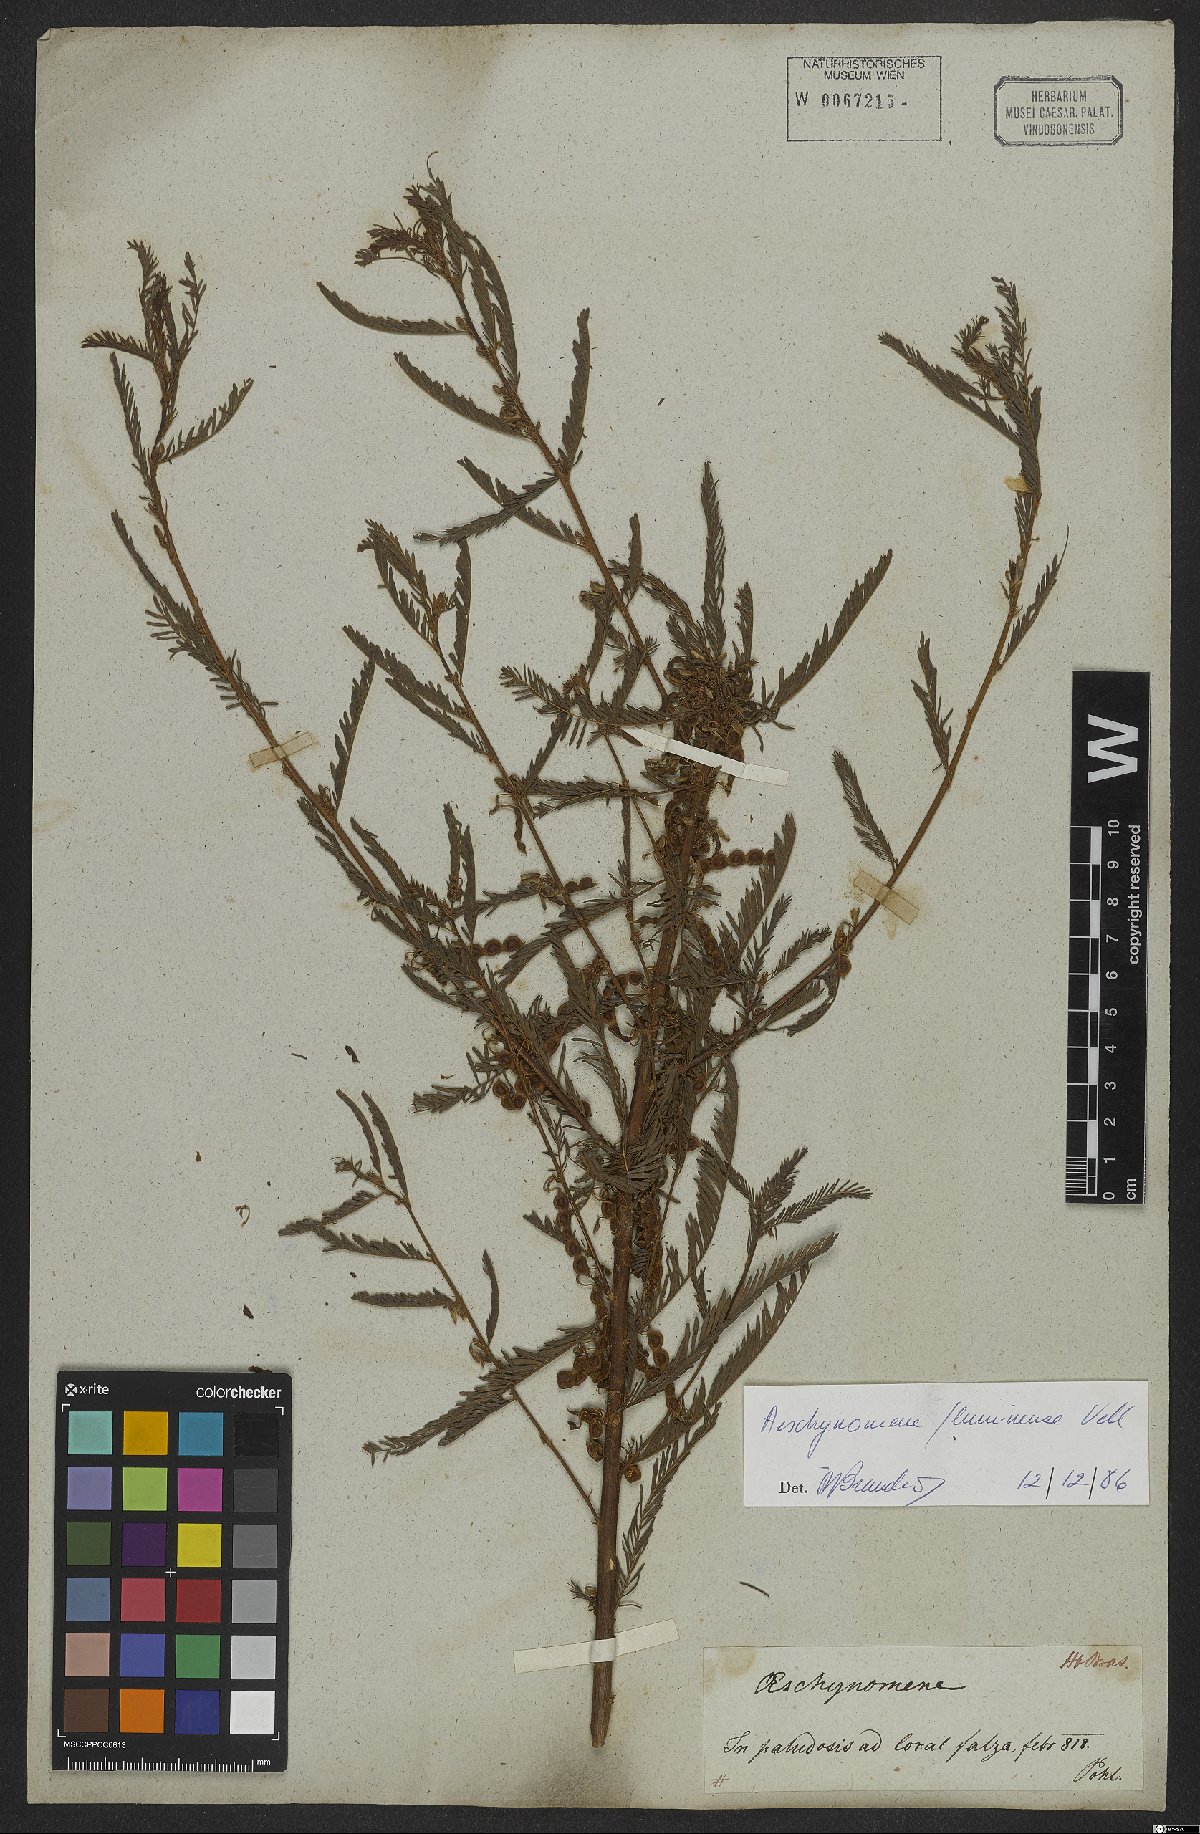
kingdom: Plantae
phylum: Tracheophyta
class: Magnoliopsida
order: Fabales
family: Fabaceae
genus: Aeschynomene
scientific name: Aeschynomene fluminensis
